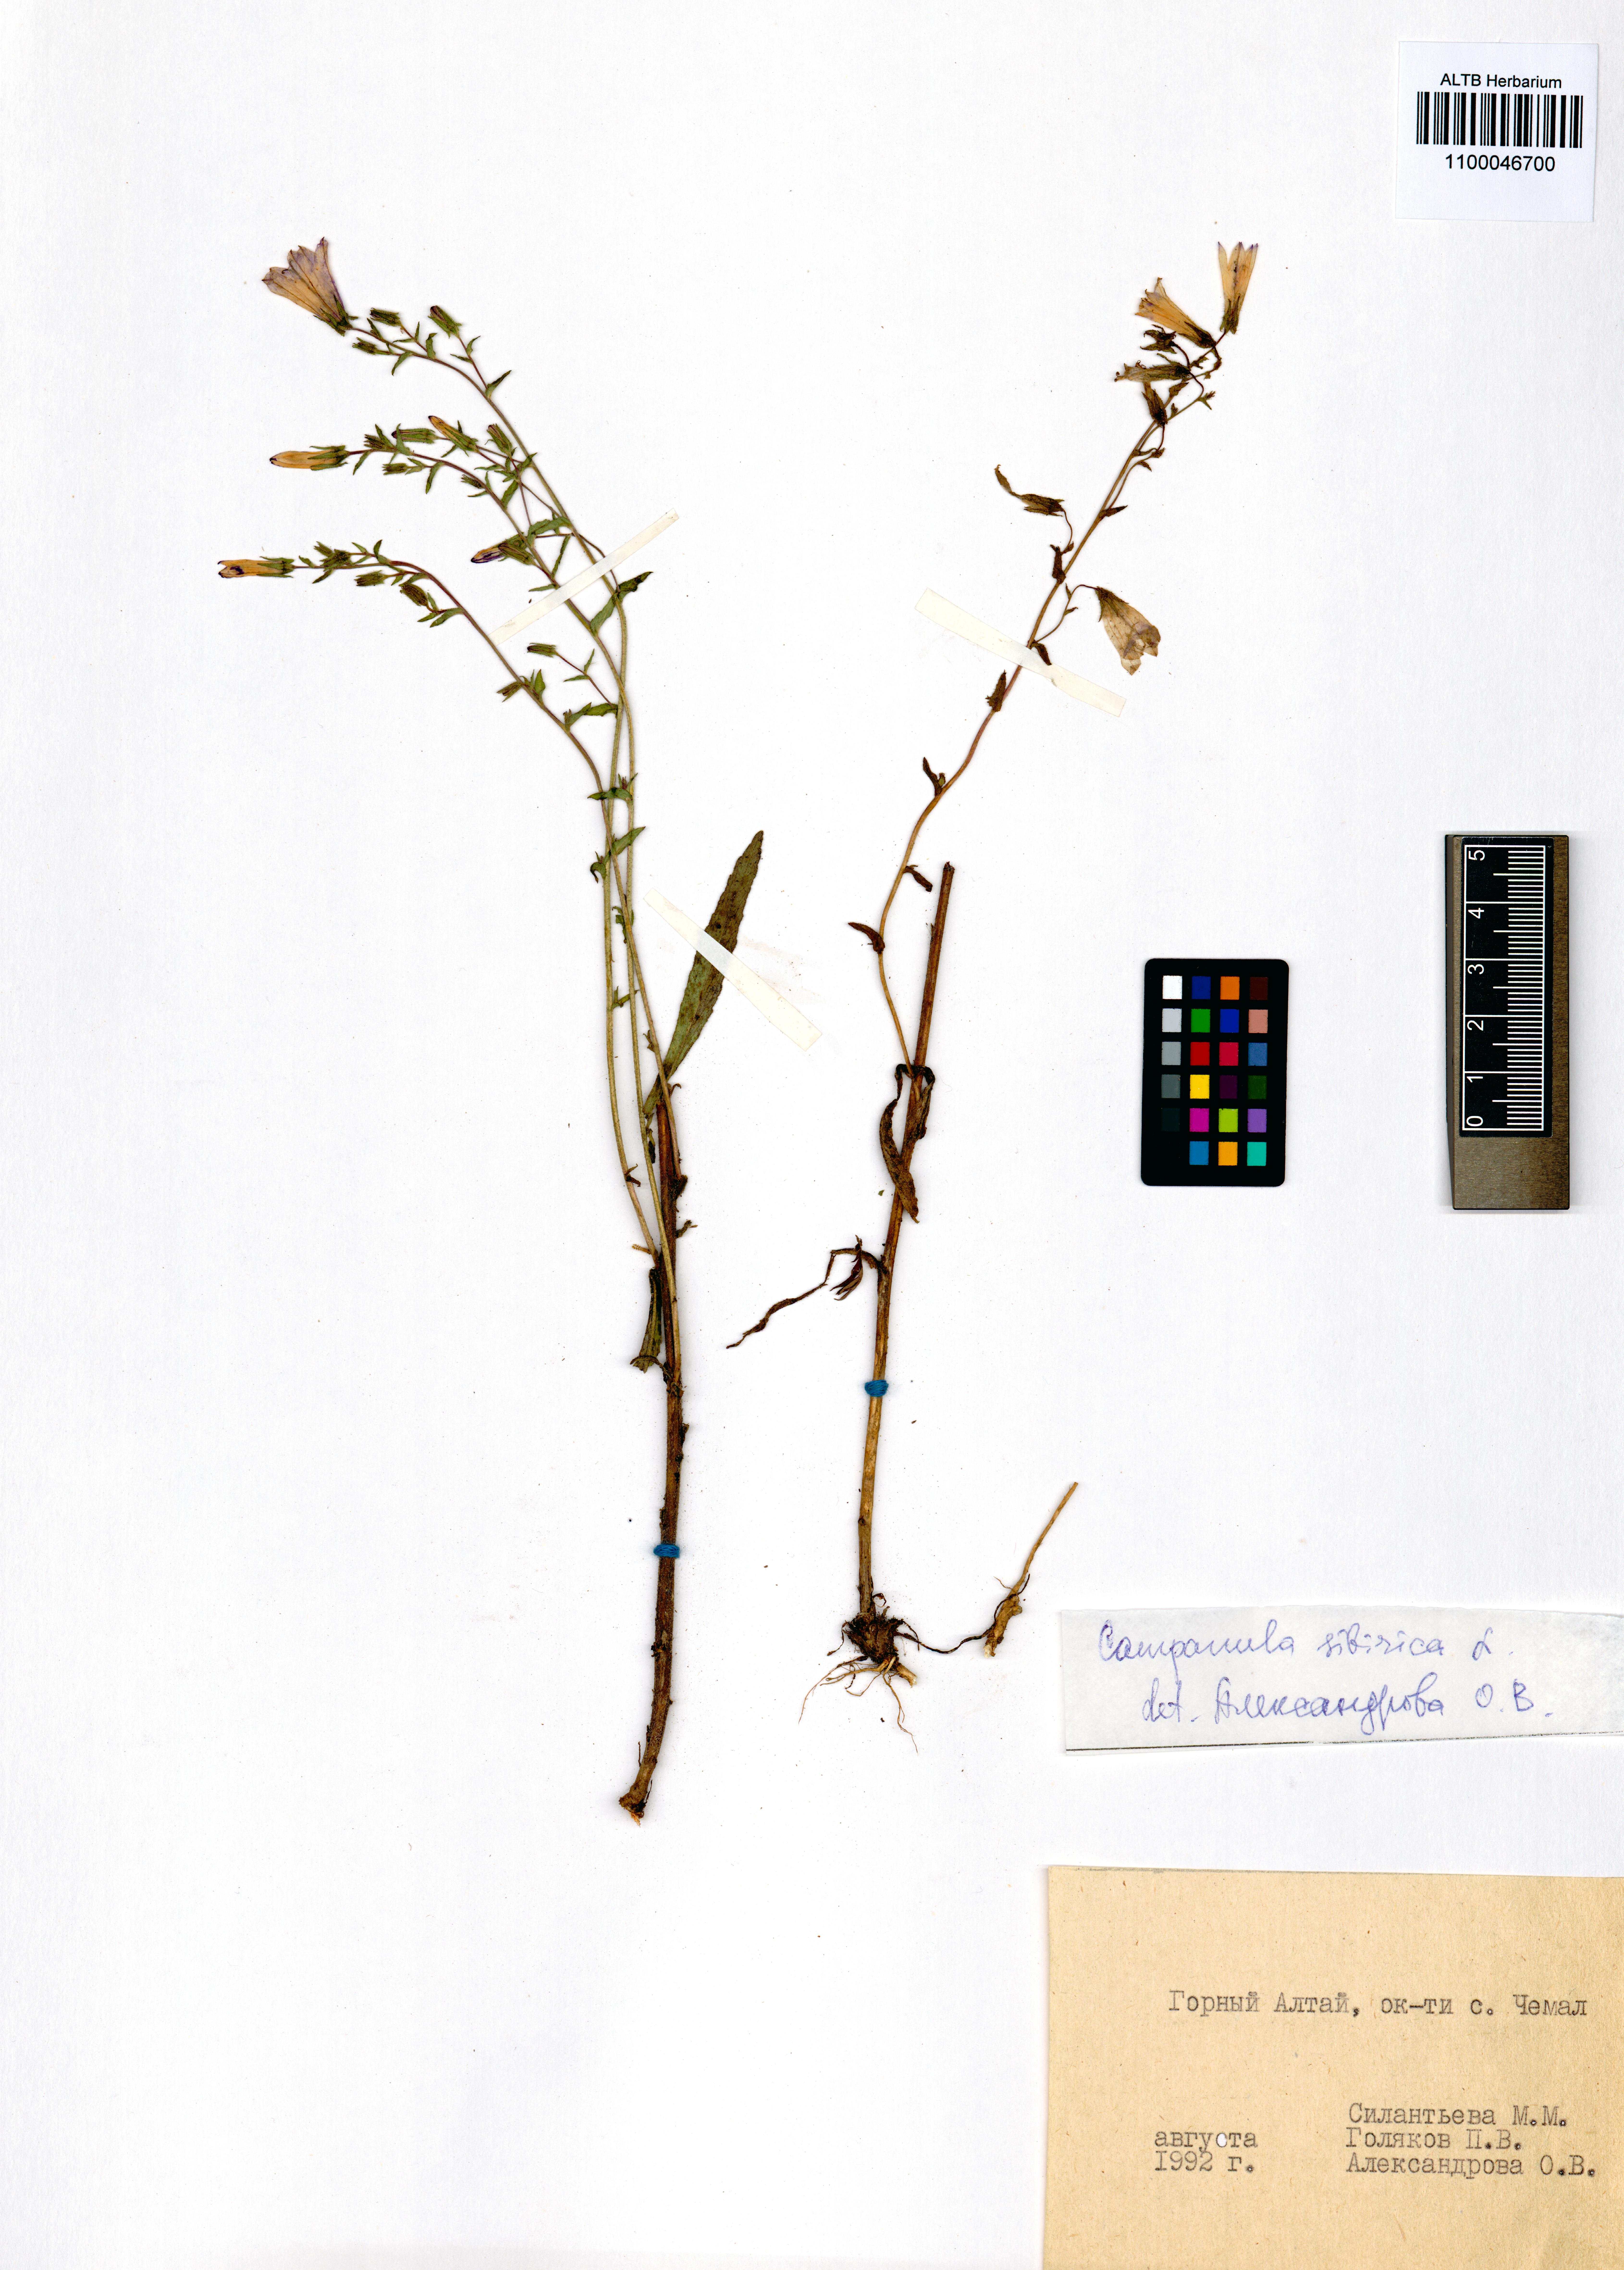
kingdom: Plantae
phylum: Tracheophyta
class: Magnoliopsida
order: Asterales
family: Campanulaceae
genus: Campanula
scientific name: Campanula sibirica
